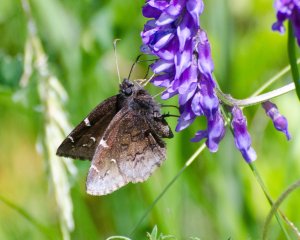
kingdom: Animalia
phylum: Arthropoda
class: Insecta
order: Lepidoptera
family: Hesperiidae
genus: Autochton
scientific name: Autochton
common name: Northern Cloudywing
